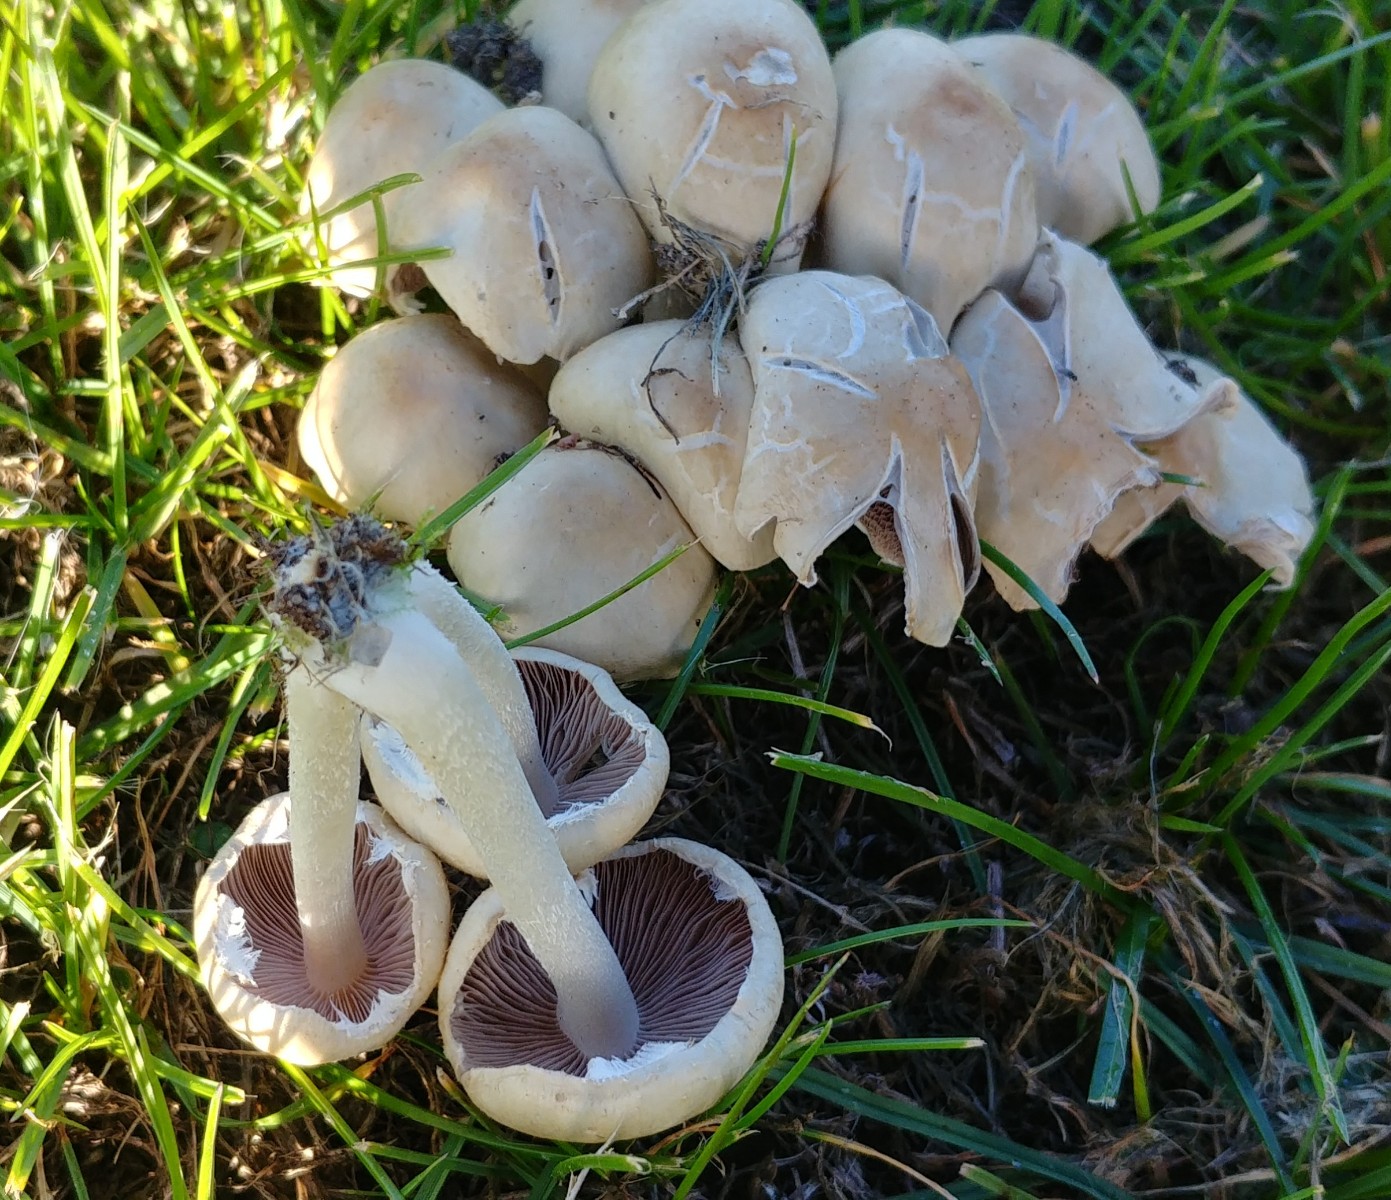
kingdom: Fungi
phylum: Basidiomycota
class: Agaricomycetes
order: Agaricales
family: Psathyrellaceae
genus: Candolleomyces
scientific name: Candolleomyces candolleanus
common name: Candolles mørkhat
